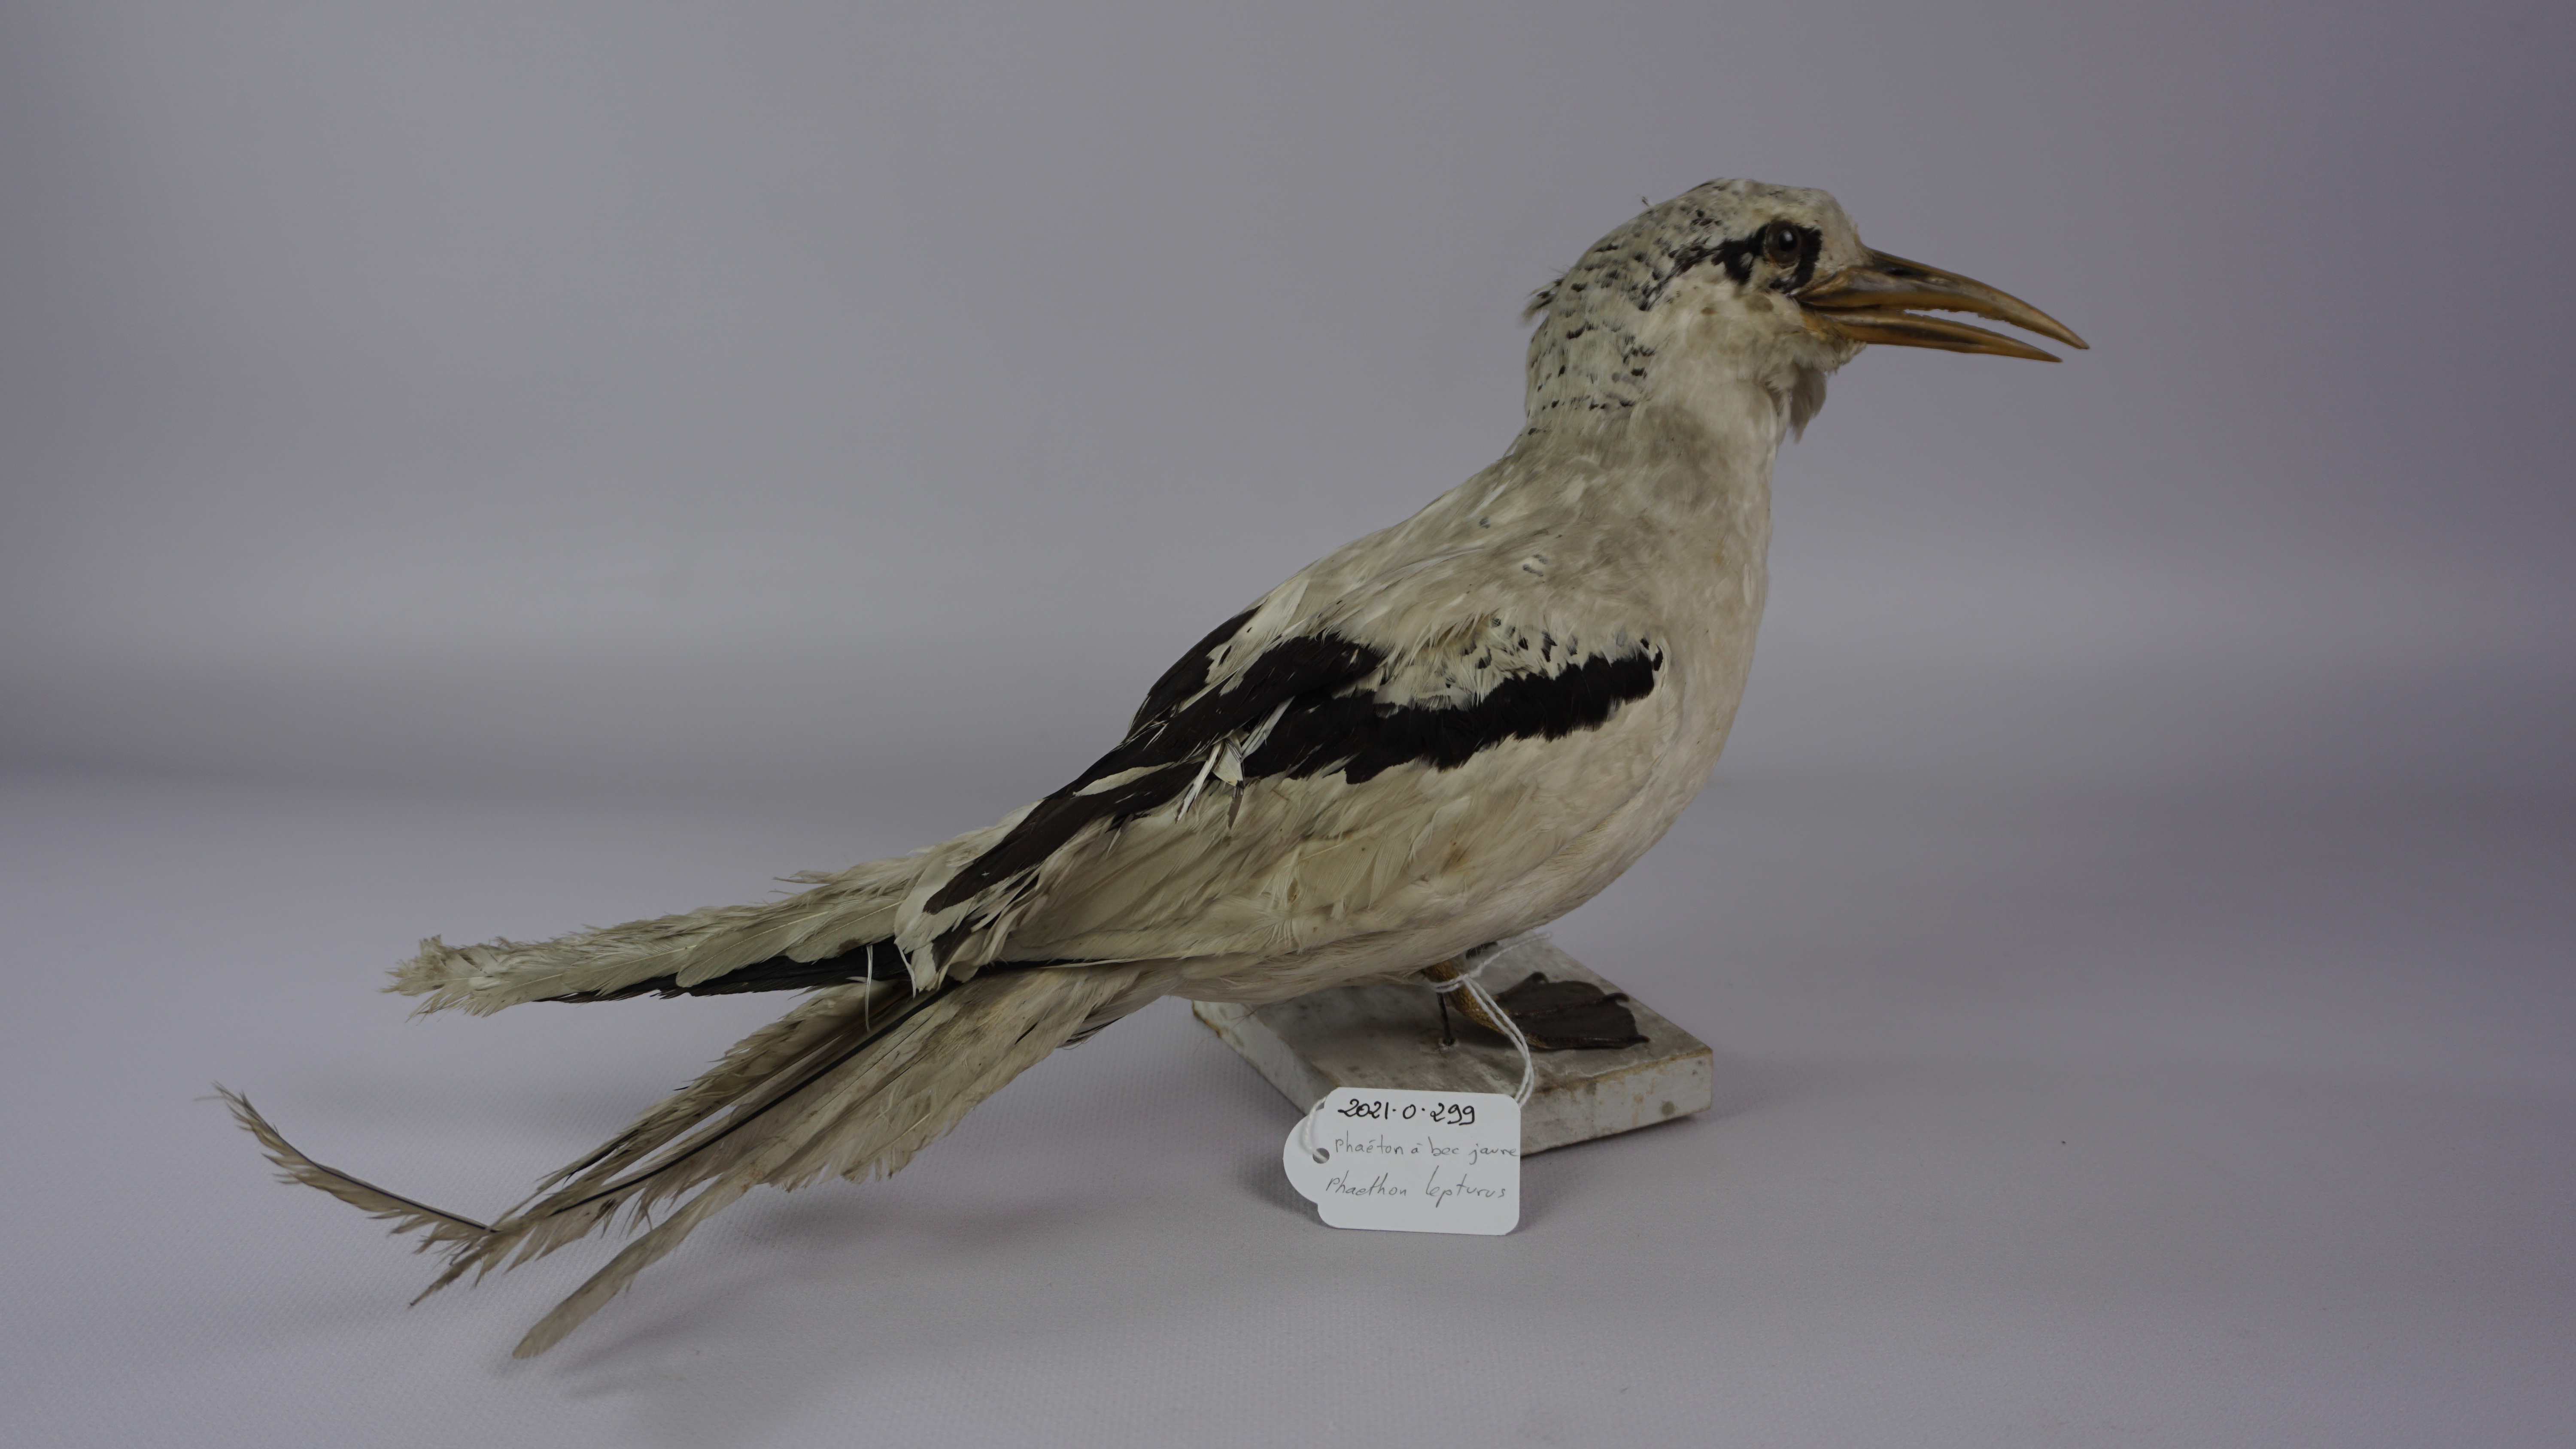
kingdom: Animalia
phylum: Chordata
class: Aves
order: Phaethontiformes
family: Phaethontidae
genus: Phaethon
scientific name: Phaethon lepturus
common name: White-tailed tropicbird
